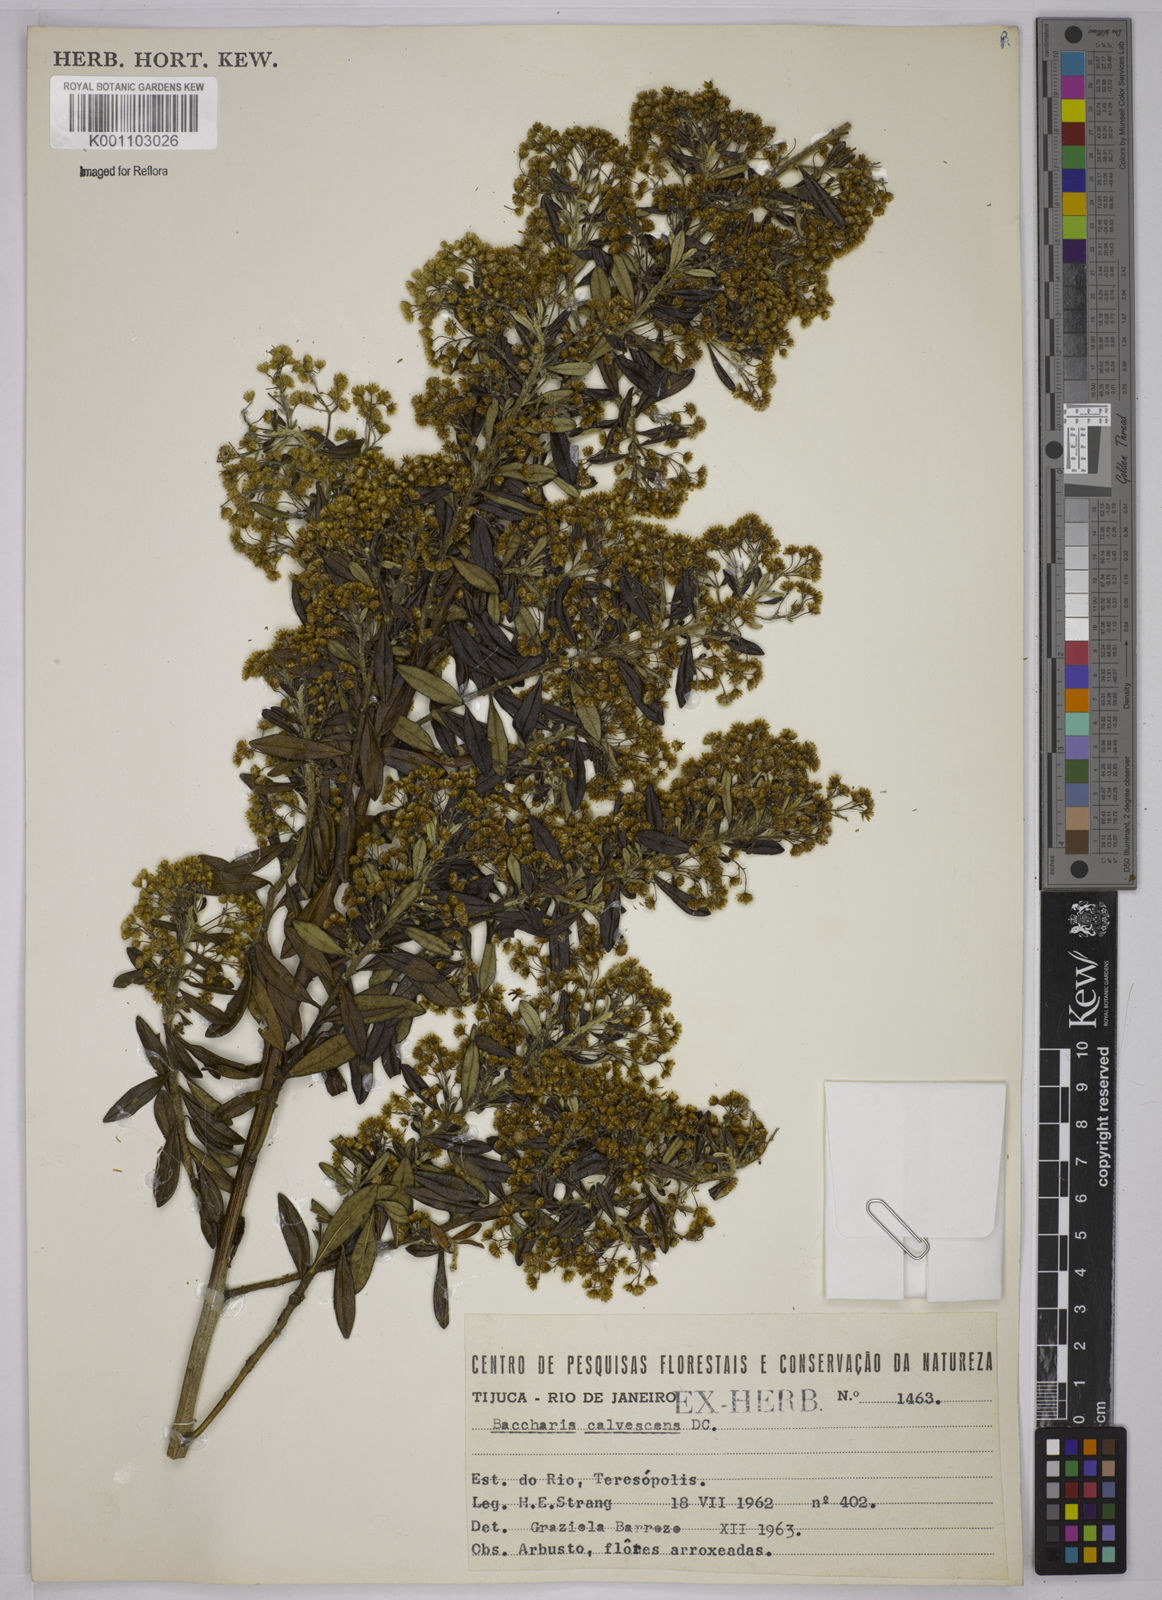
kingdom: Plantae
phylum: Tracheophyta
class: Magnoliopsida
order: Asterales
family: Asteraceae
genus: Baccharis
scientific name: Baccharis calvescens
